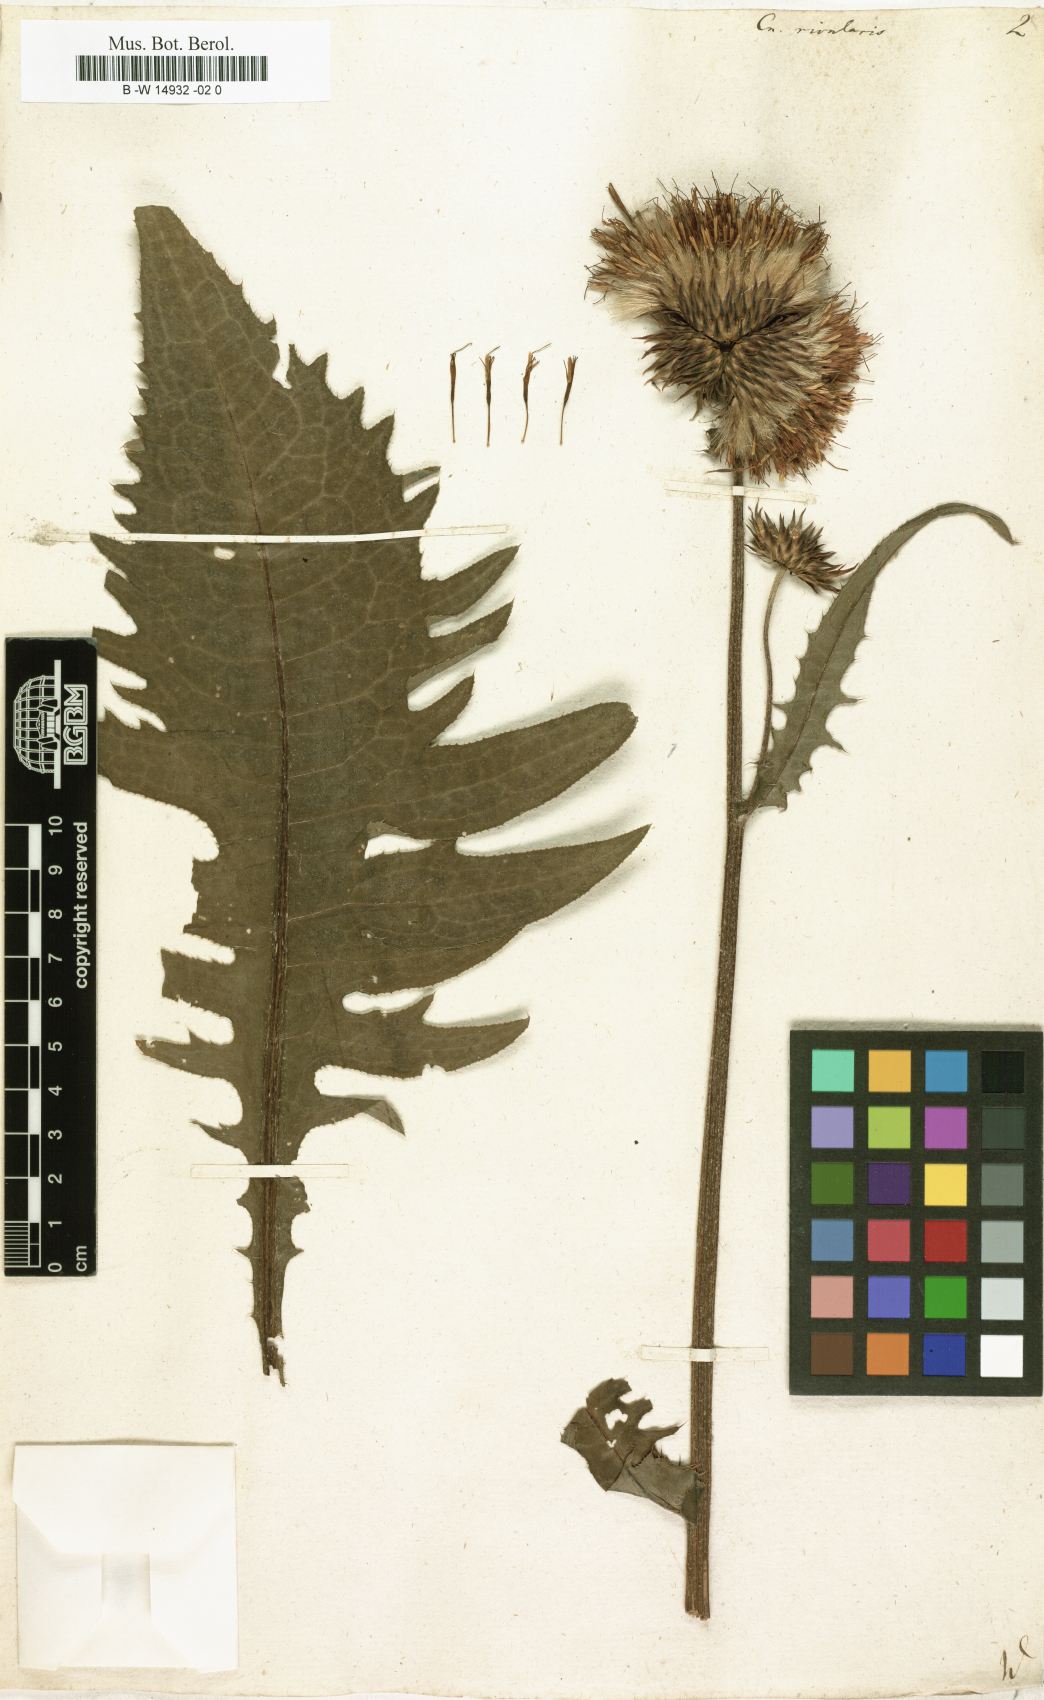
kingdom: Plantae
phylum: Tracheophyta
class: Magnoliopsida
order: Asterales
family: Asteraceae
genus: Cirsium
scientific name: Cirsium
